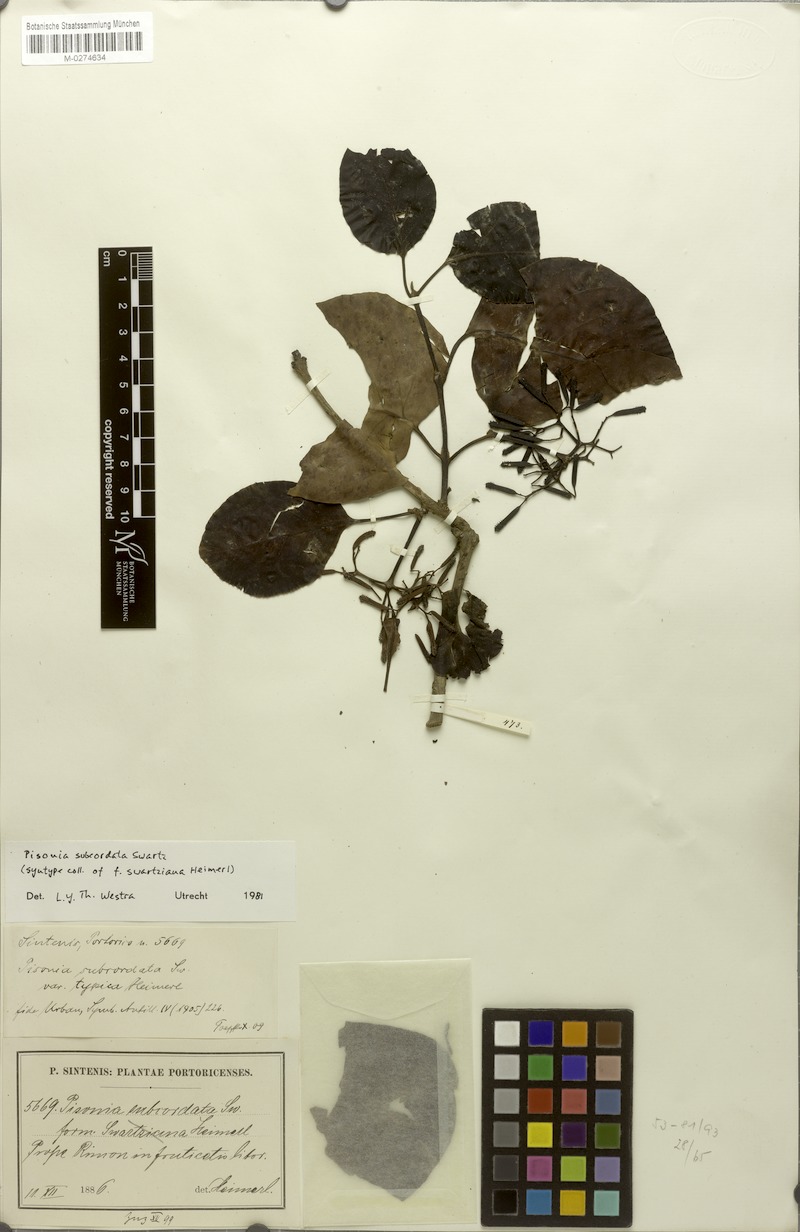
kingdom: Plantae
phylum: Tracheophyta
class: Magnoliopsida
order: Caryophyllales
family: Nyctaginaceae
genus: Pisonia
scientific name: Pisonia subcordata
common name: Mampoo
